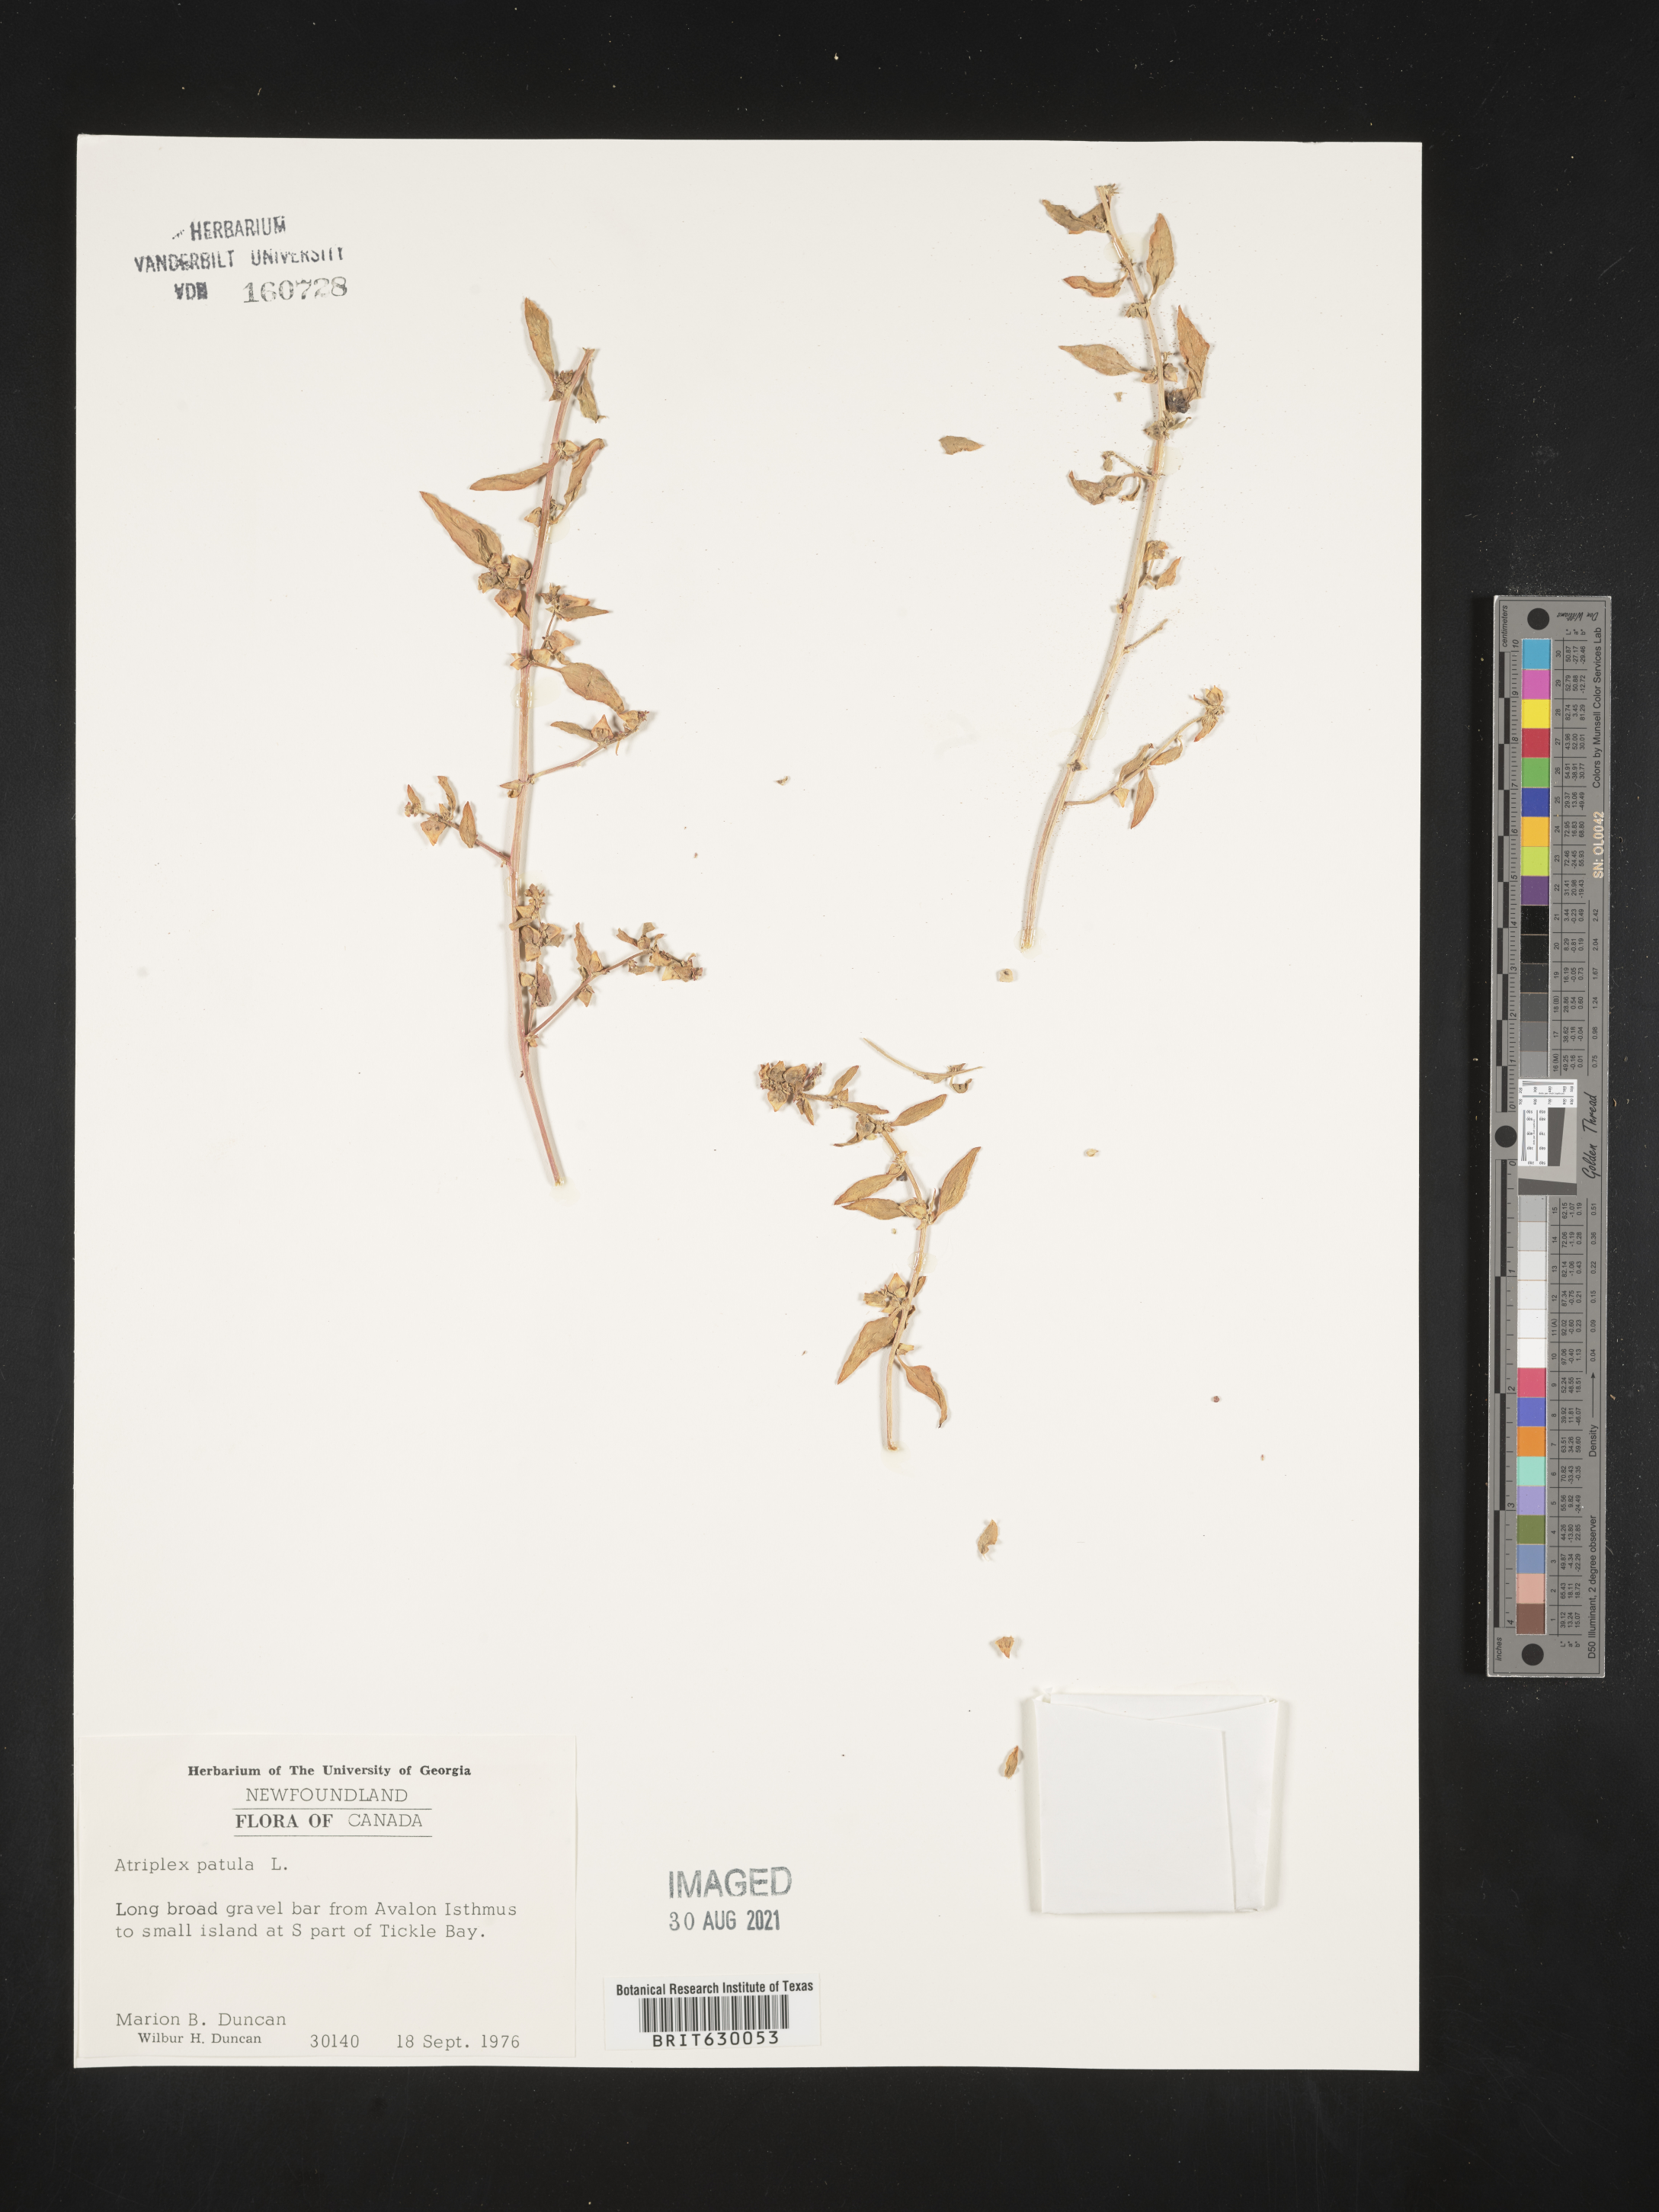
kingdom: Plantae
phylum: Tracheophyta
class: Magnoliopsida
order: Caryophyllales
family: Amaranthaceae
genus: Atriplex
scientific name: Atriplex patula
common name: Common orache
